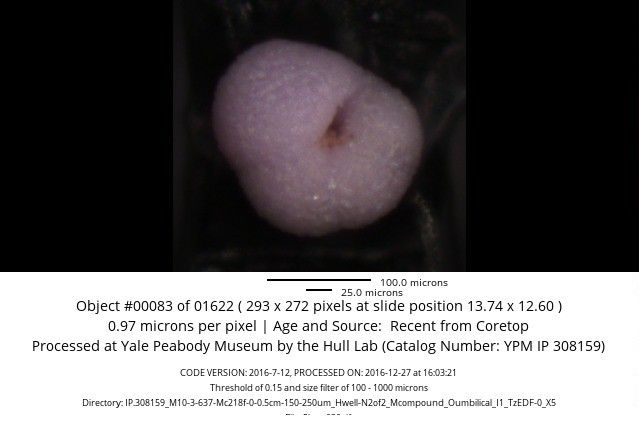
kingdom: Chromista
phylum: Foraminifera
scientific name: Foraminifera
